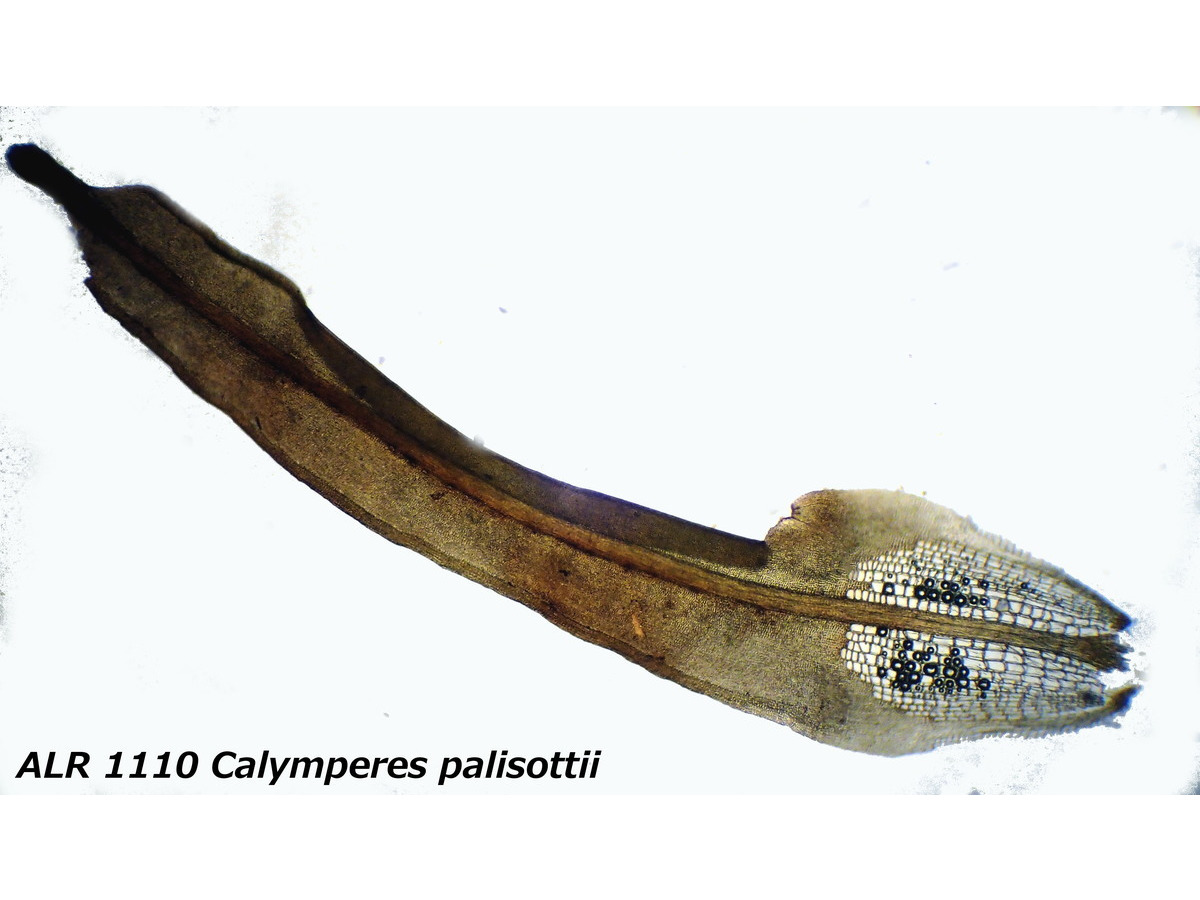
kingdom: Plantae
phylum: Bryophyta
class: Bryopsida
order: Dicranales
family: Calymperaceae
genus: Calymperes
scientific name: Calymperes palisotii
